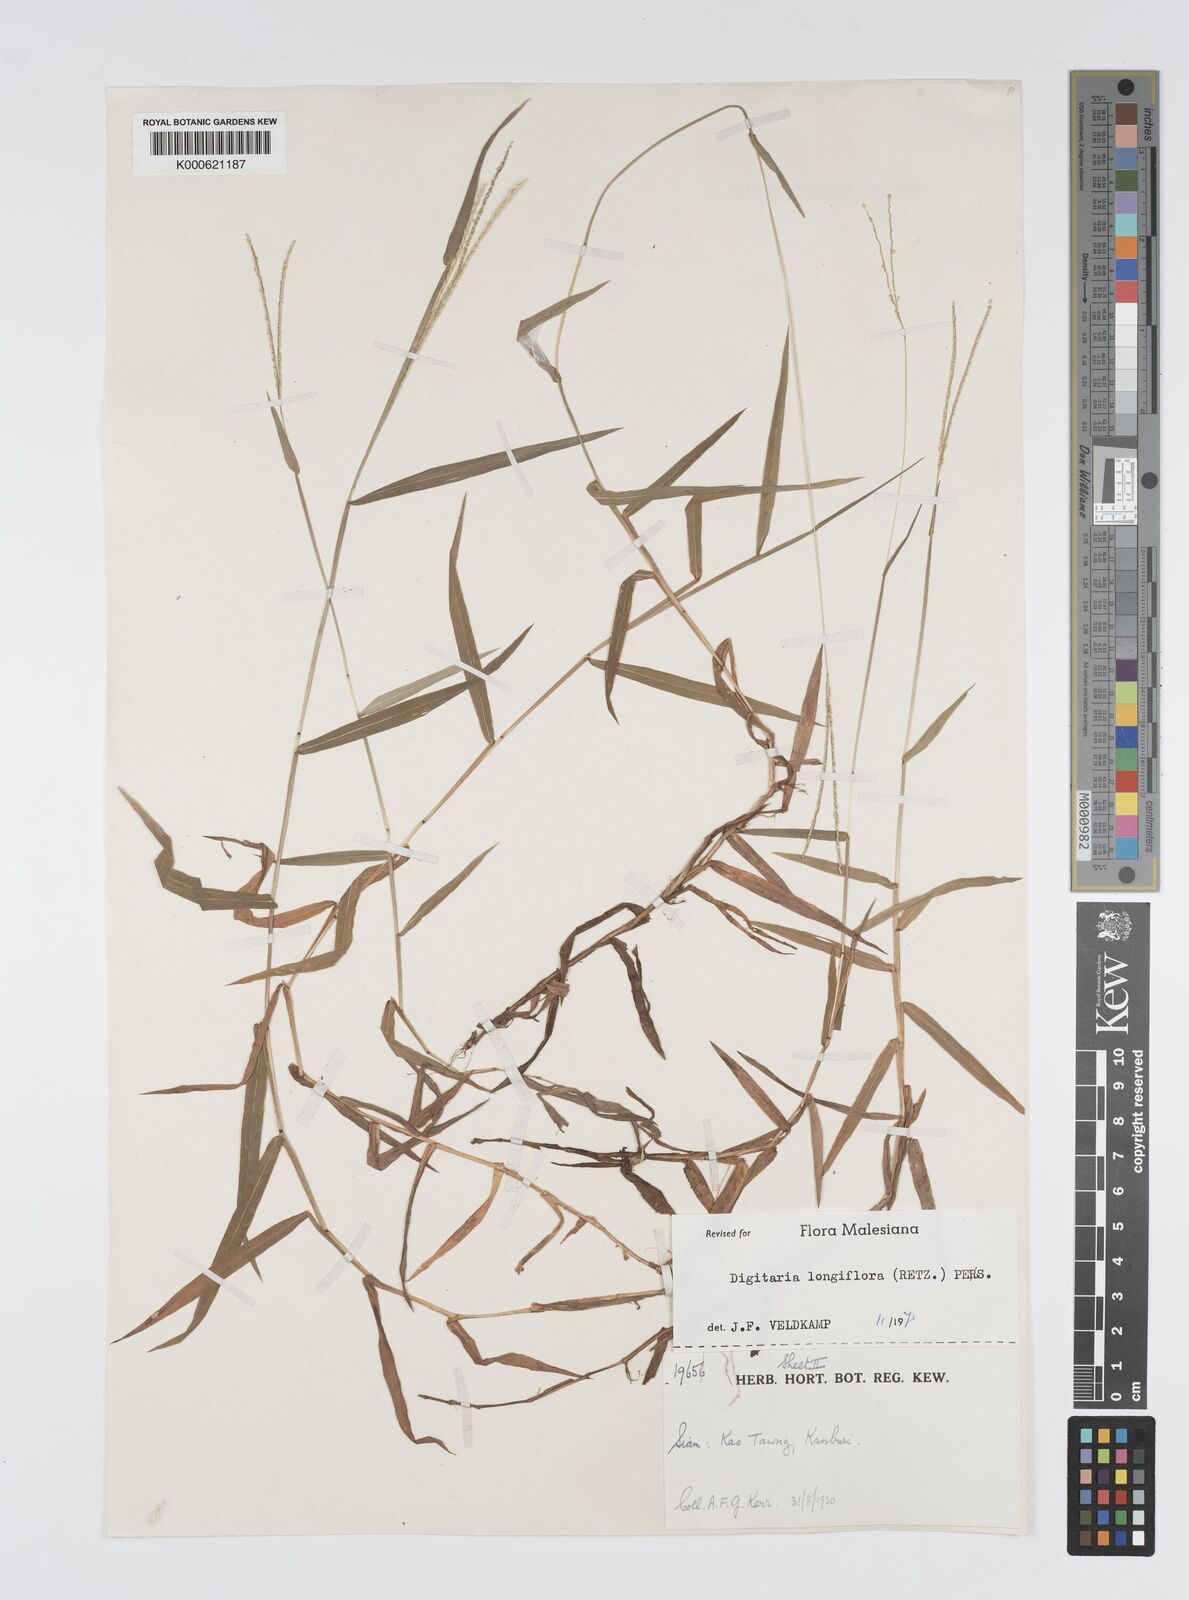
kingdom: Plantae
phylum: Tracheophyta
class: Liliopsida
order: Poales
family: Poaceae
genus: Digitaria
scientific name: Digitaria longiflora
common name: Wire crabgrass
